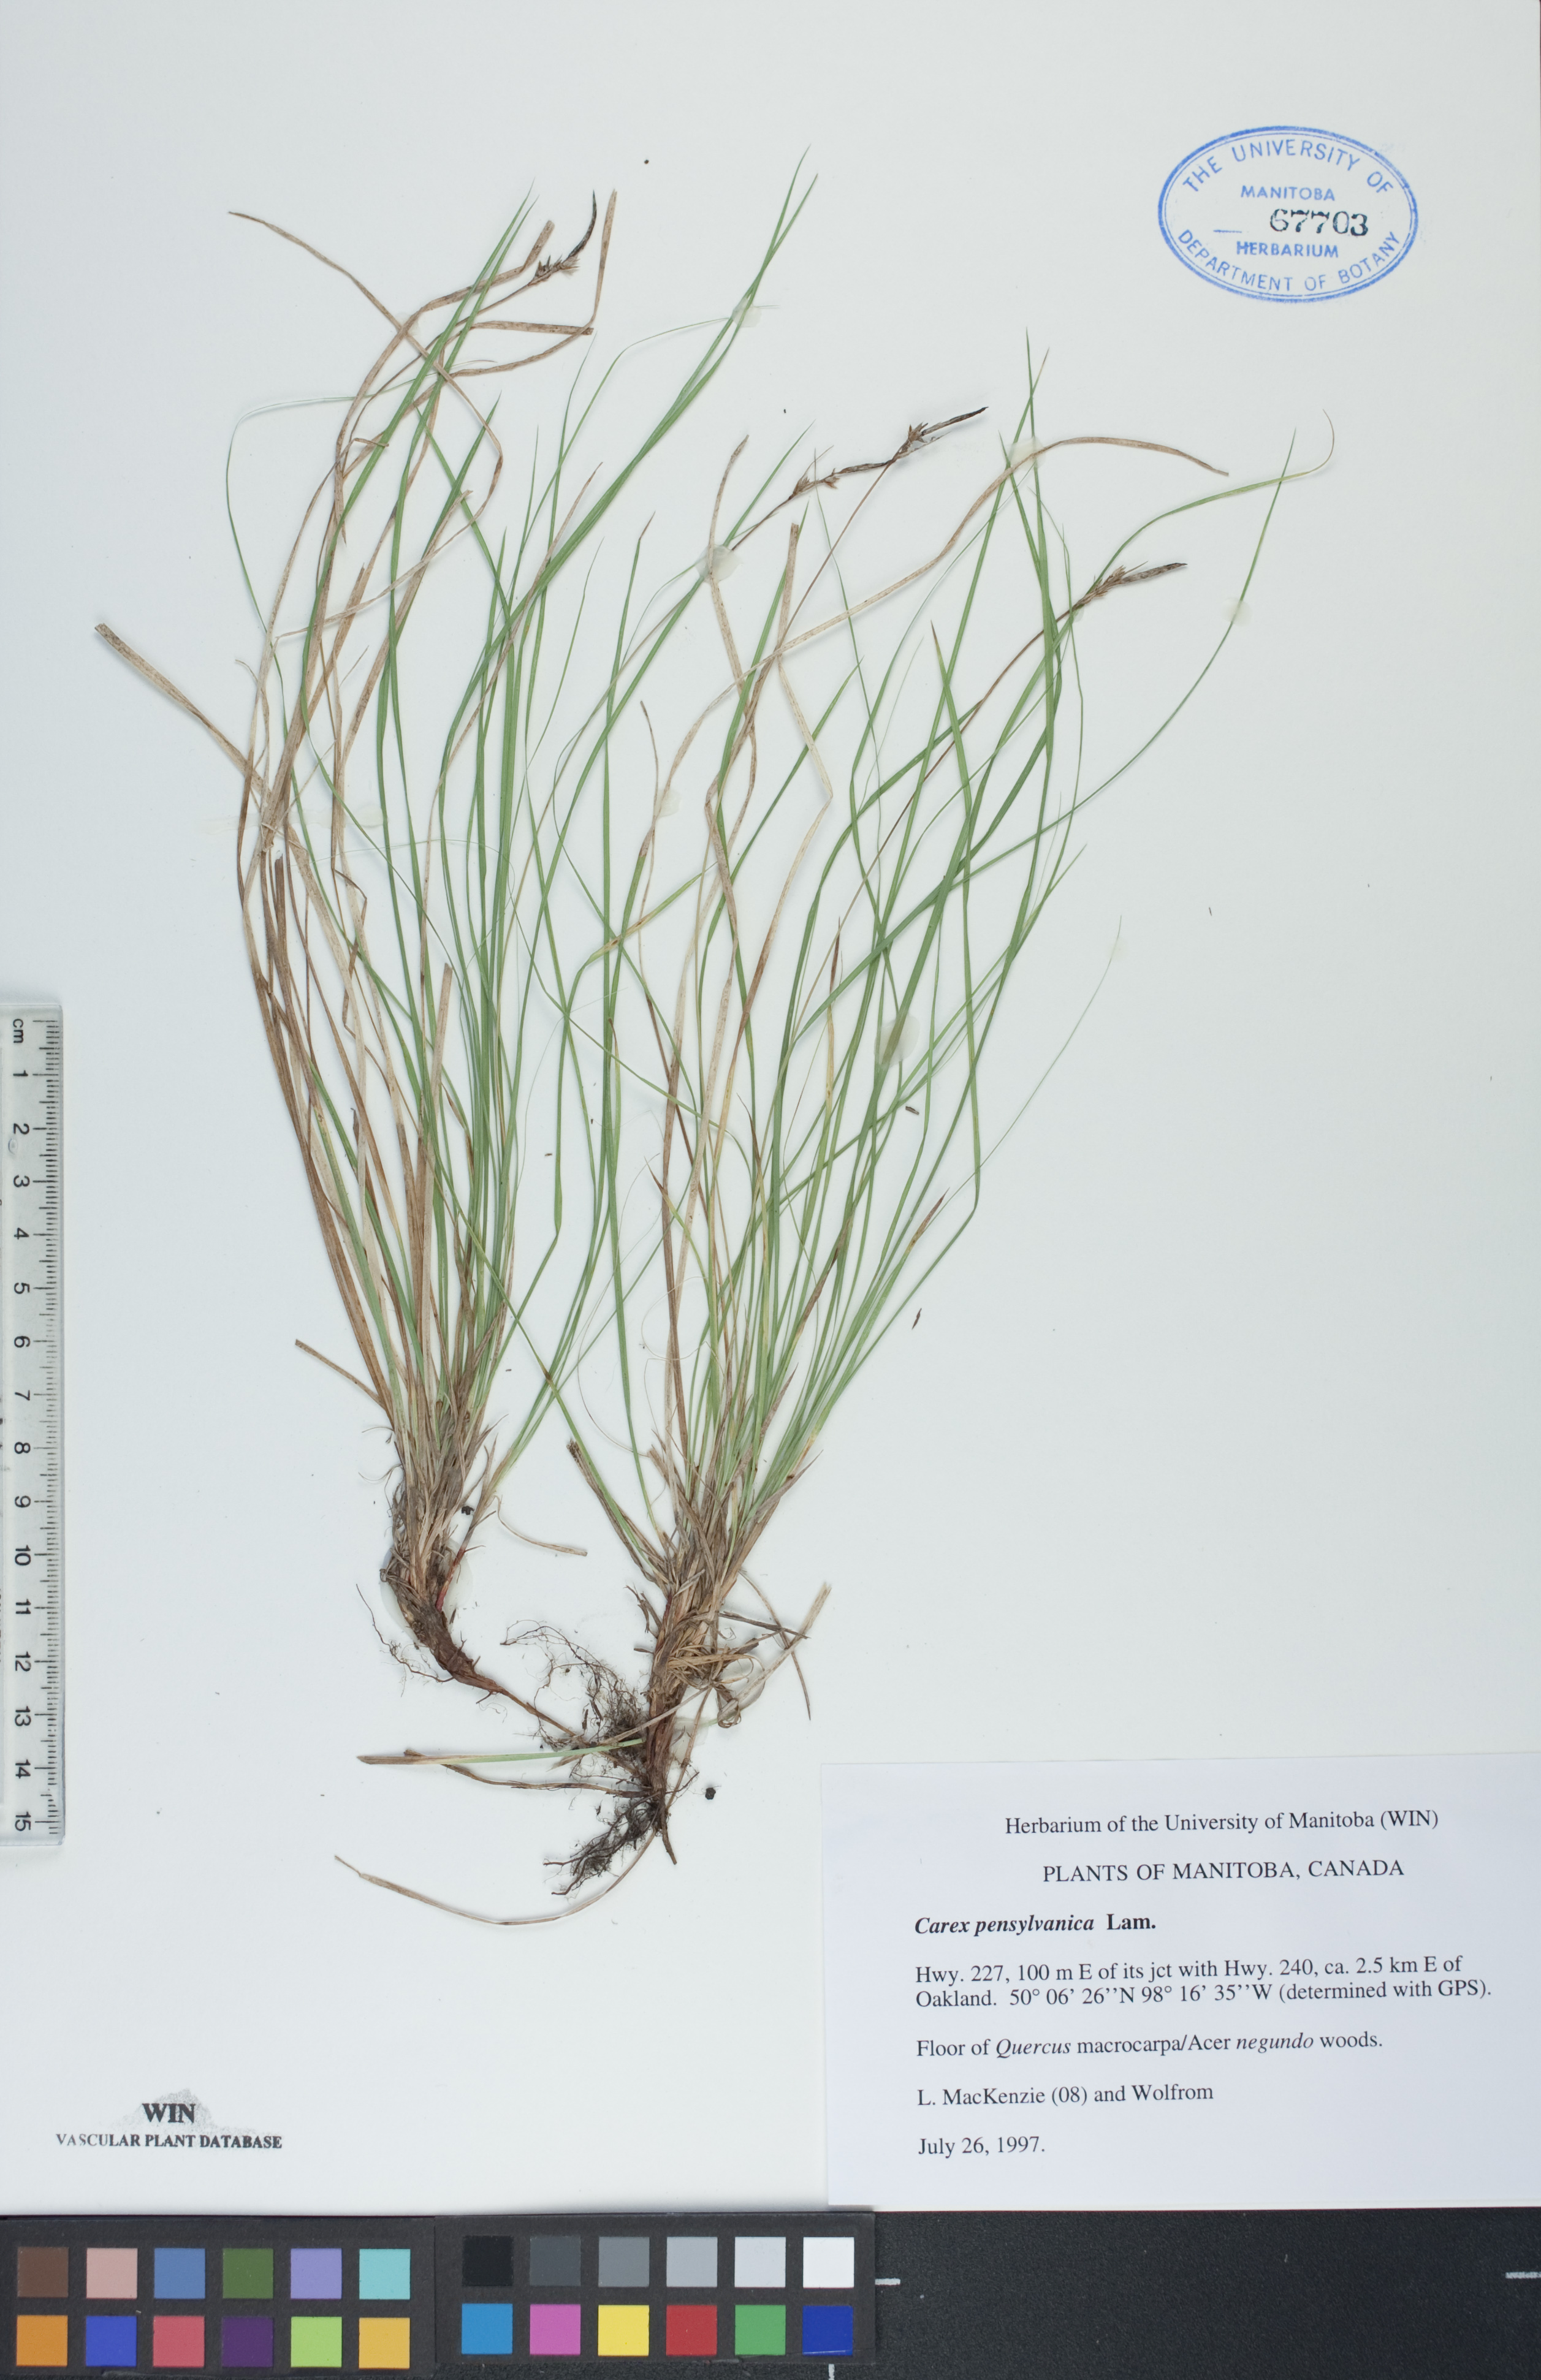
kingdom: Plantae
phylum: Tracheophyta
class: Liliopsida
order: Poales
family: Cyperaceae
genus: Carex
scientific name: Carex pensylvanica
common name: Common oak sedge
